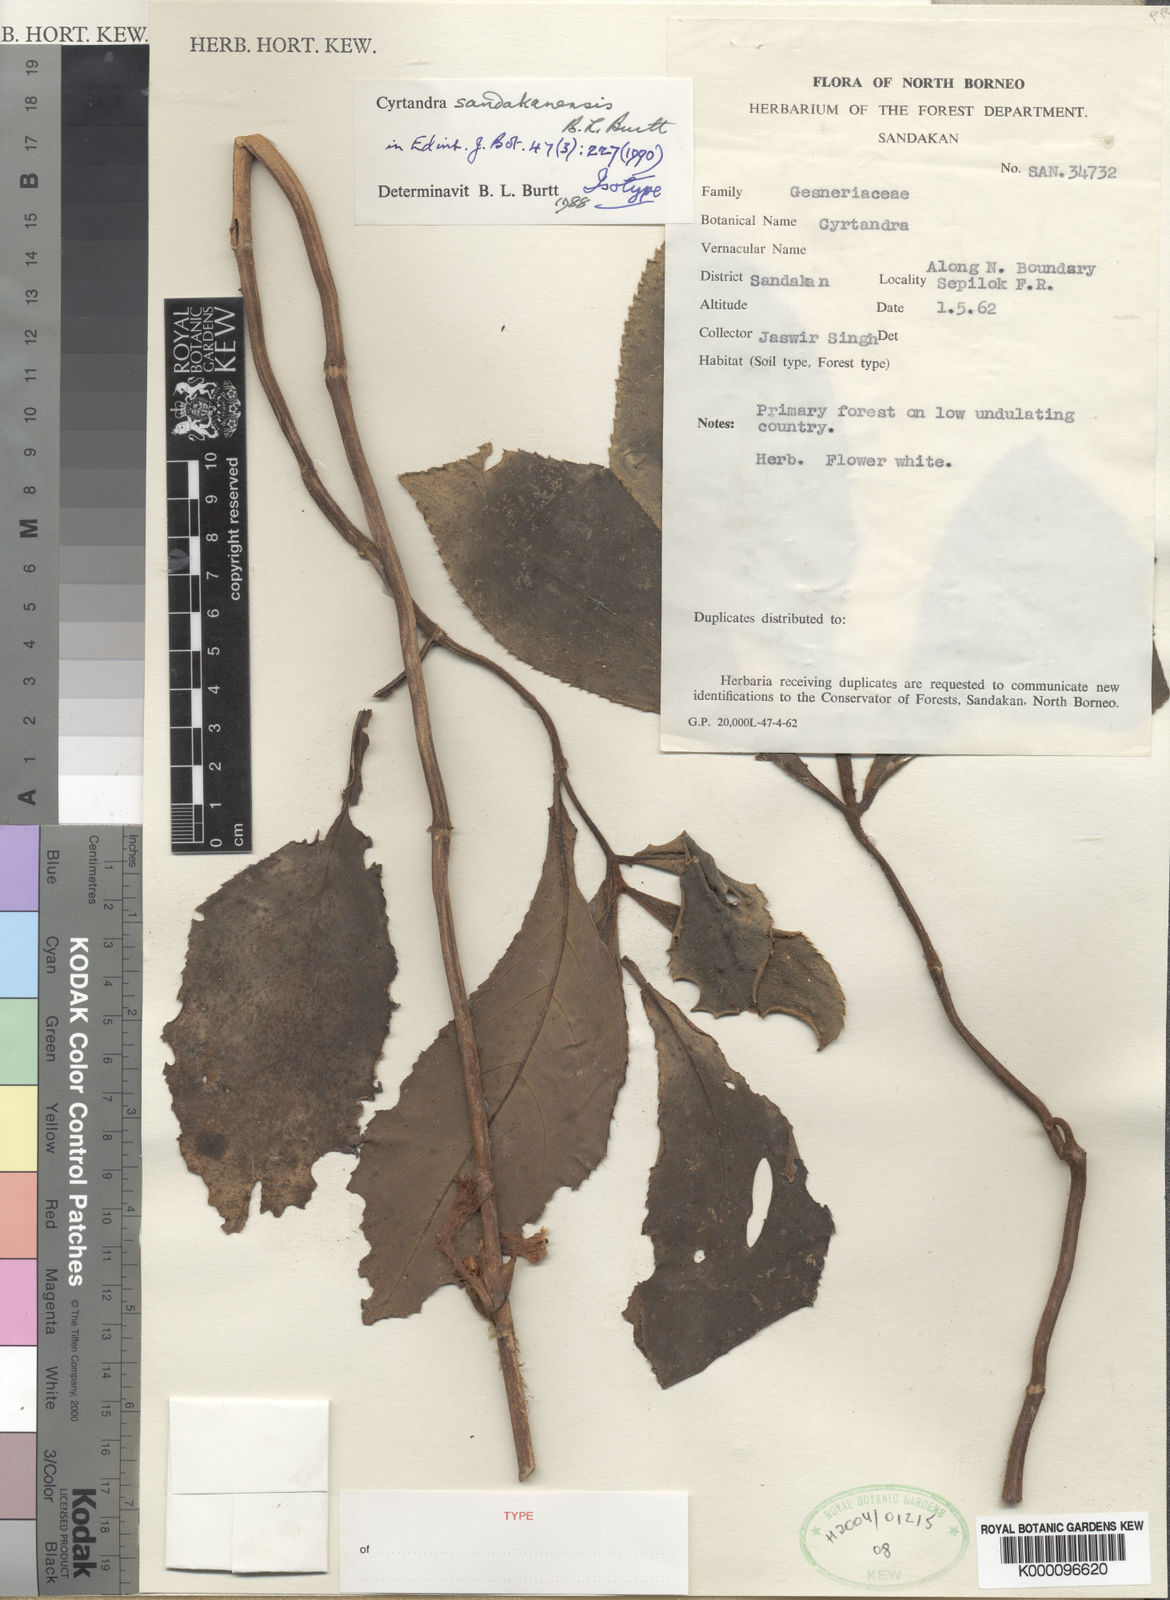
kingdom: Plantae
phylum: Tracheophyta
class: Magnoliopsida
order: Lamiales
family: Gesneriaceae
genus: Cyrtandra
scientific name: Cyrtandra sandakanensis
